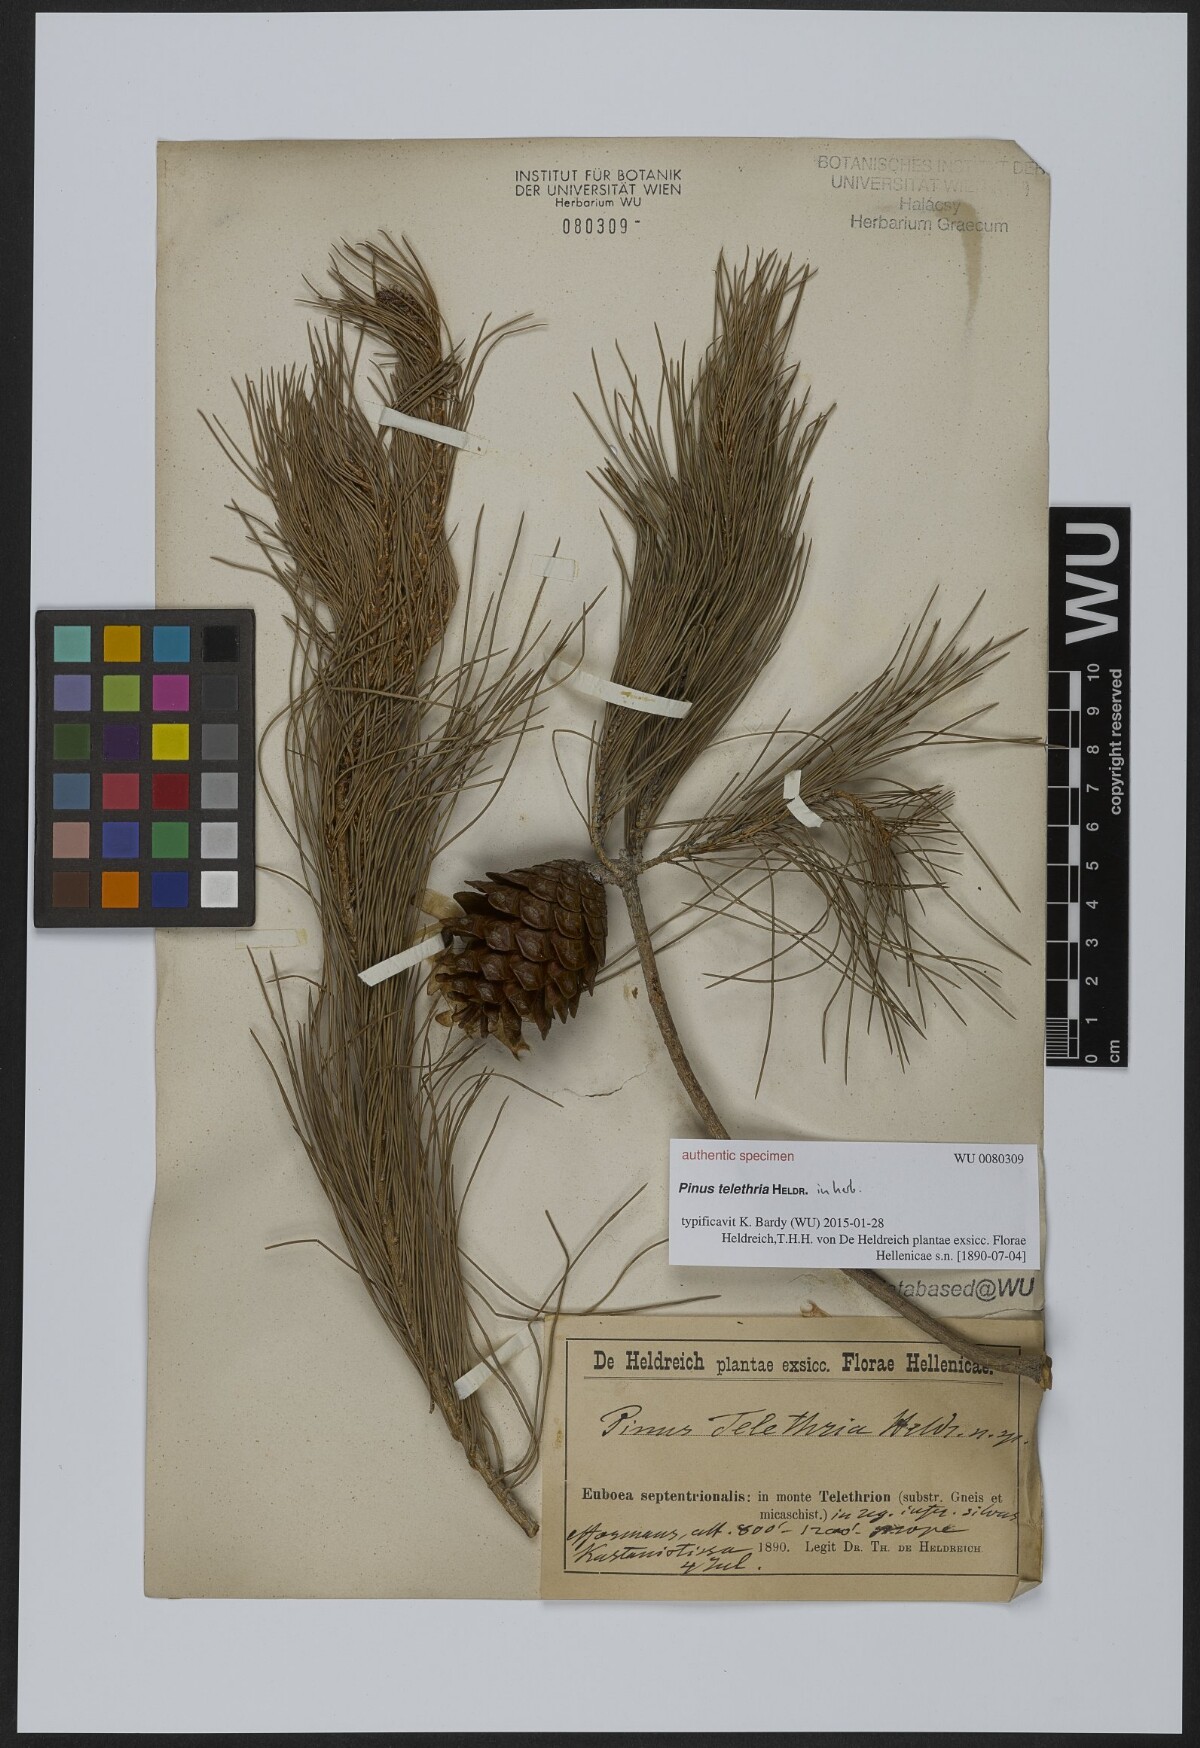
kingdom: Plantae
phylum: Tracheophyta
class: Pinopsida
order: Pinales
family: Pinaceae
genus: Pinus
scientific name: Pinus
